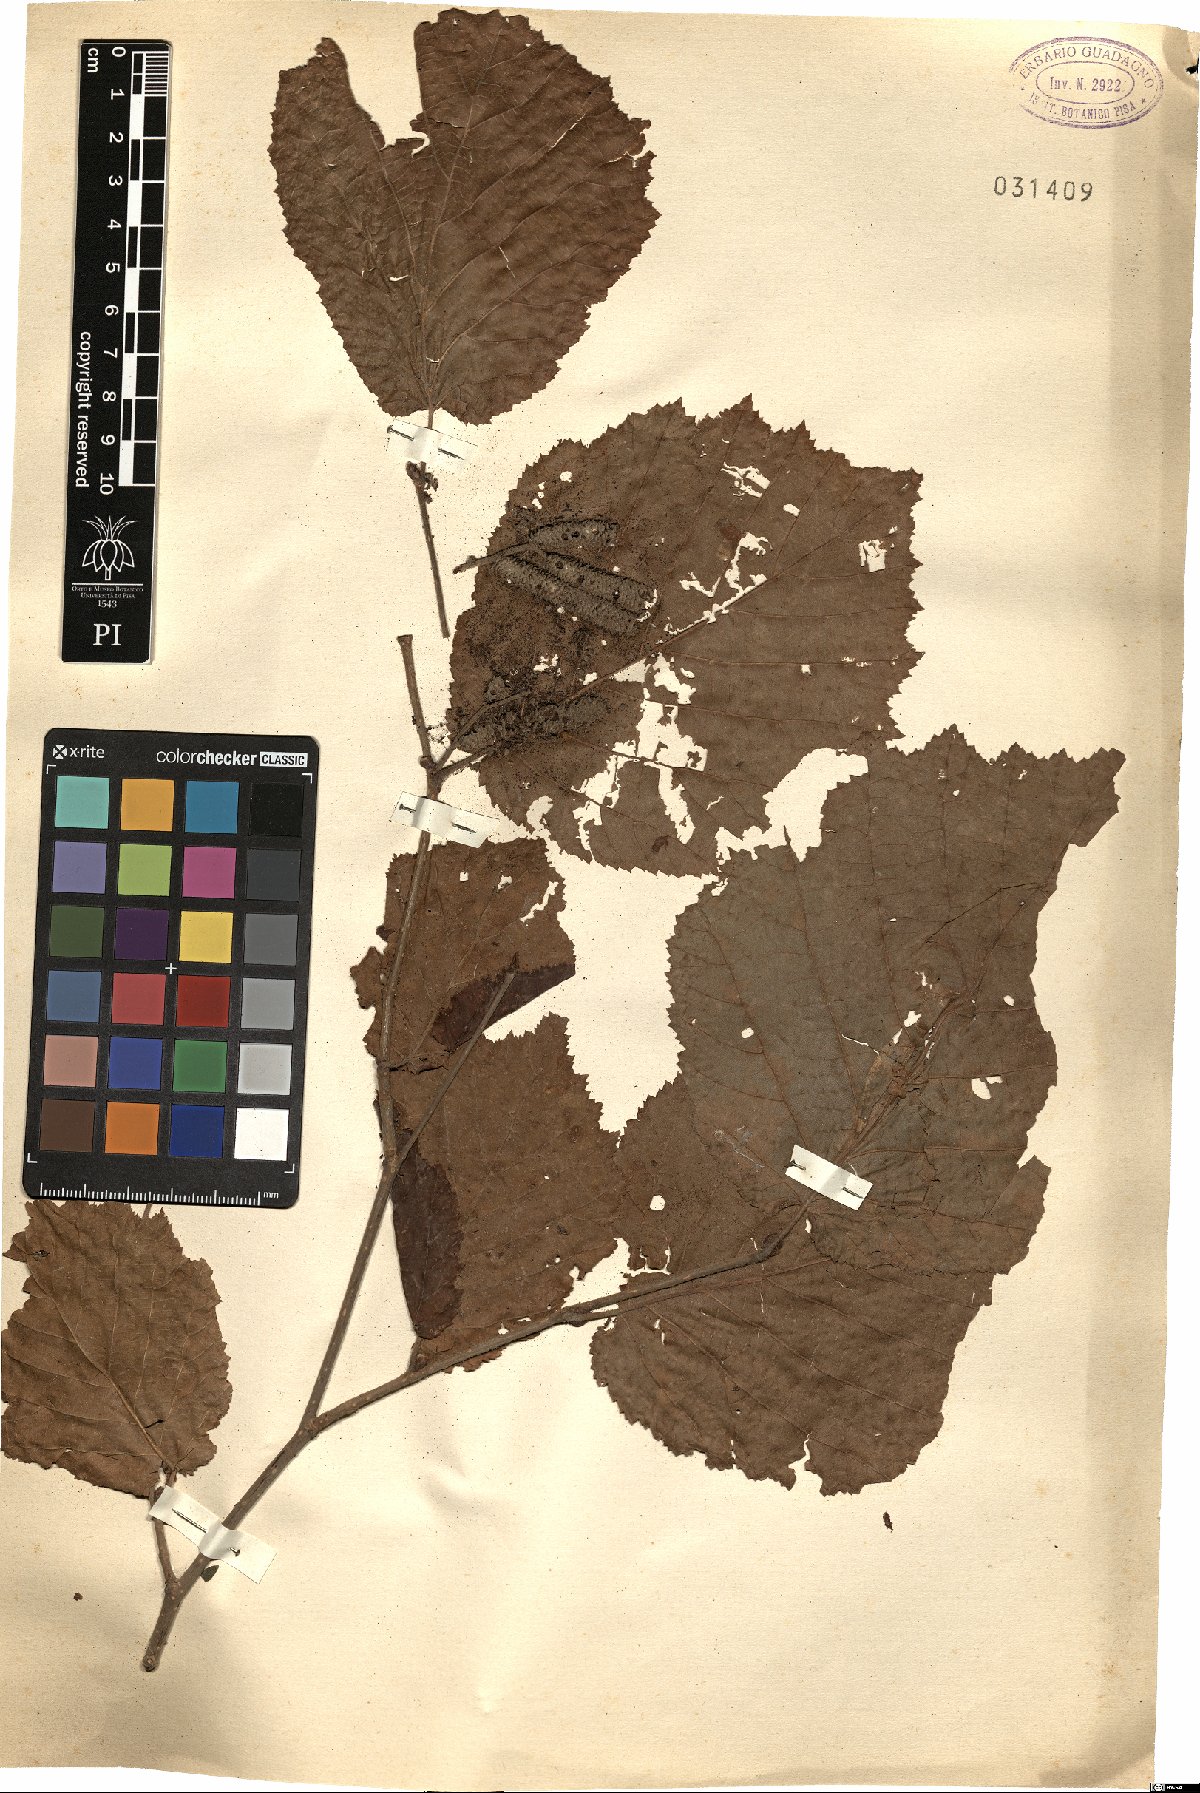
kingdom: Plantae
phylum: Tracheophyta
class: Magnoliopsida
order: Fagales
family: Betulaceae
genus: Corylus
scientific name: Corylus
